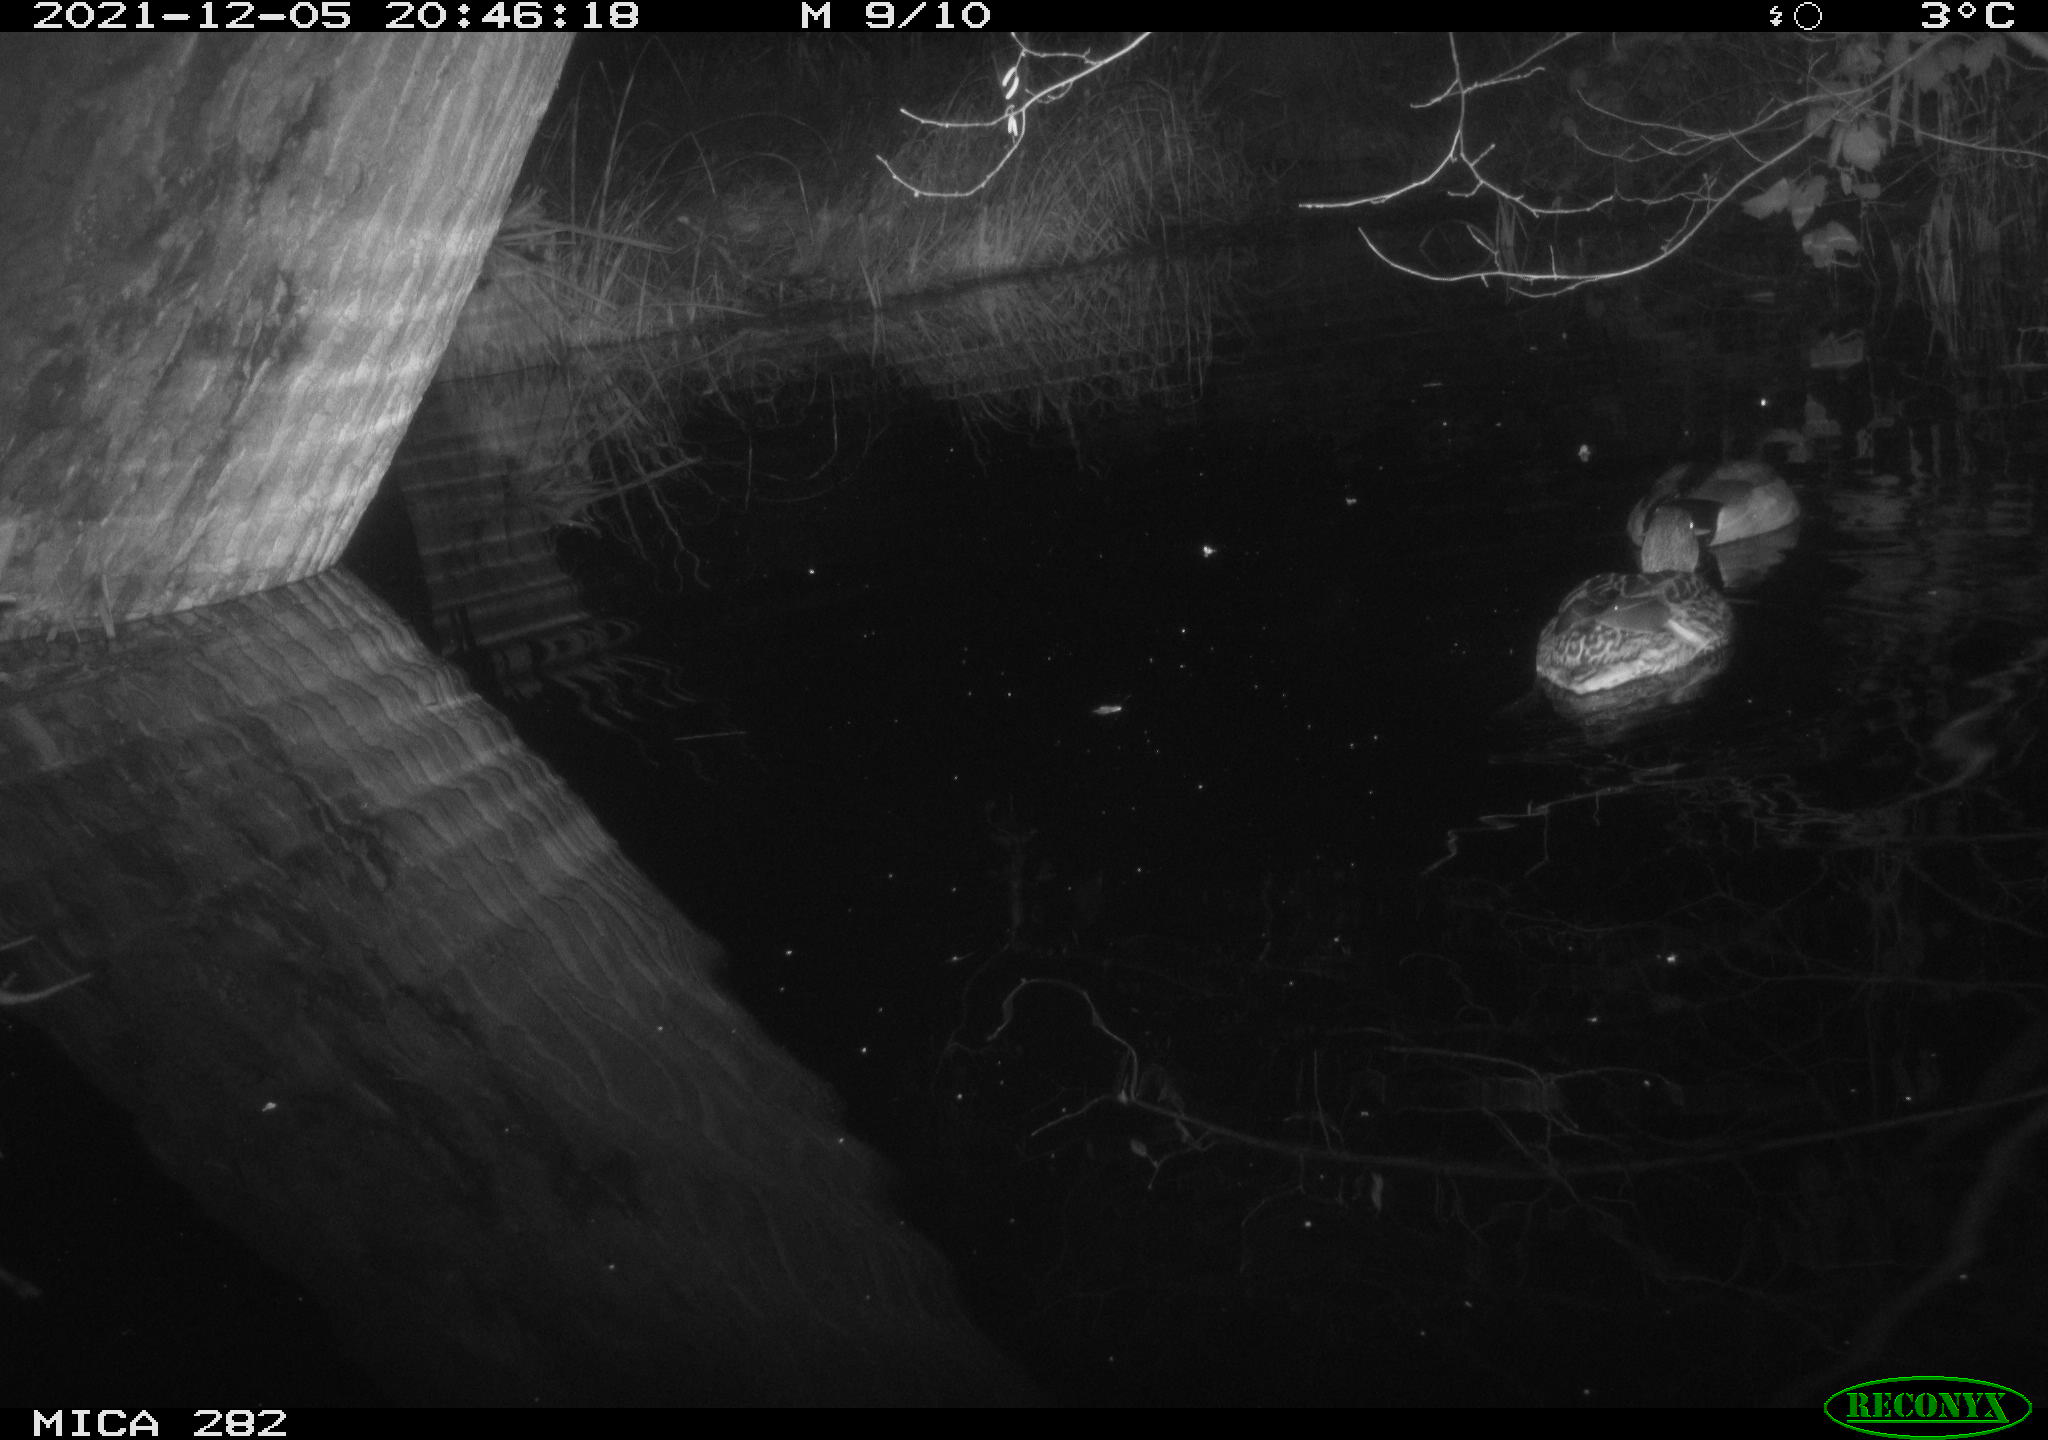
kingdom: Animalia
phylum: Chordata
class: Aves
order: Anseriformes
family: Anatidae
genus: Anas
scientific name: Anas platyrhynchos
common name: Mallard
